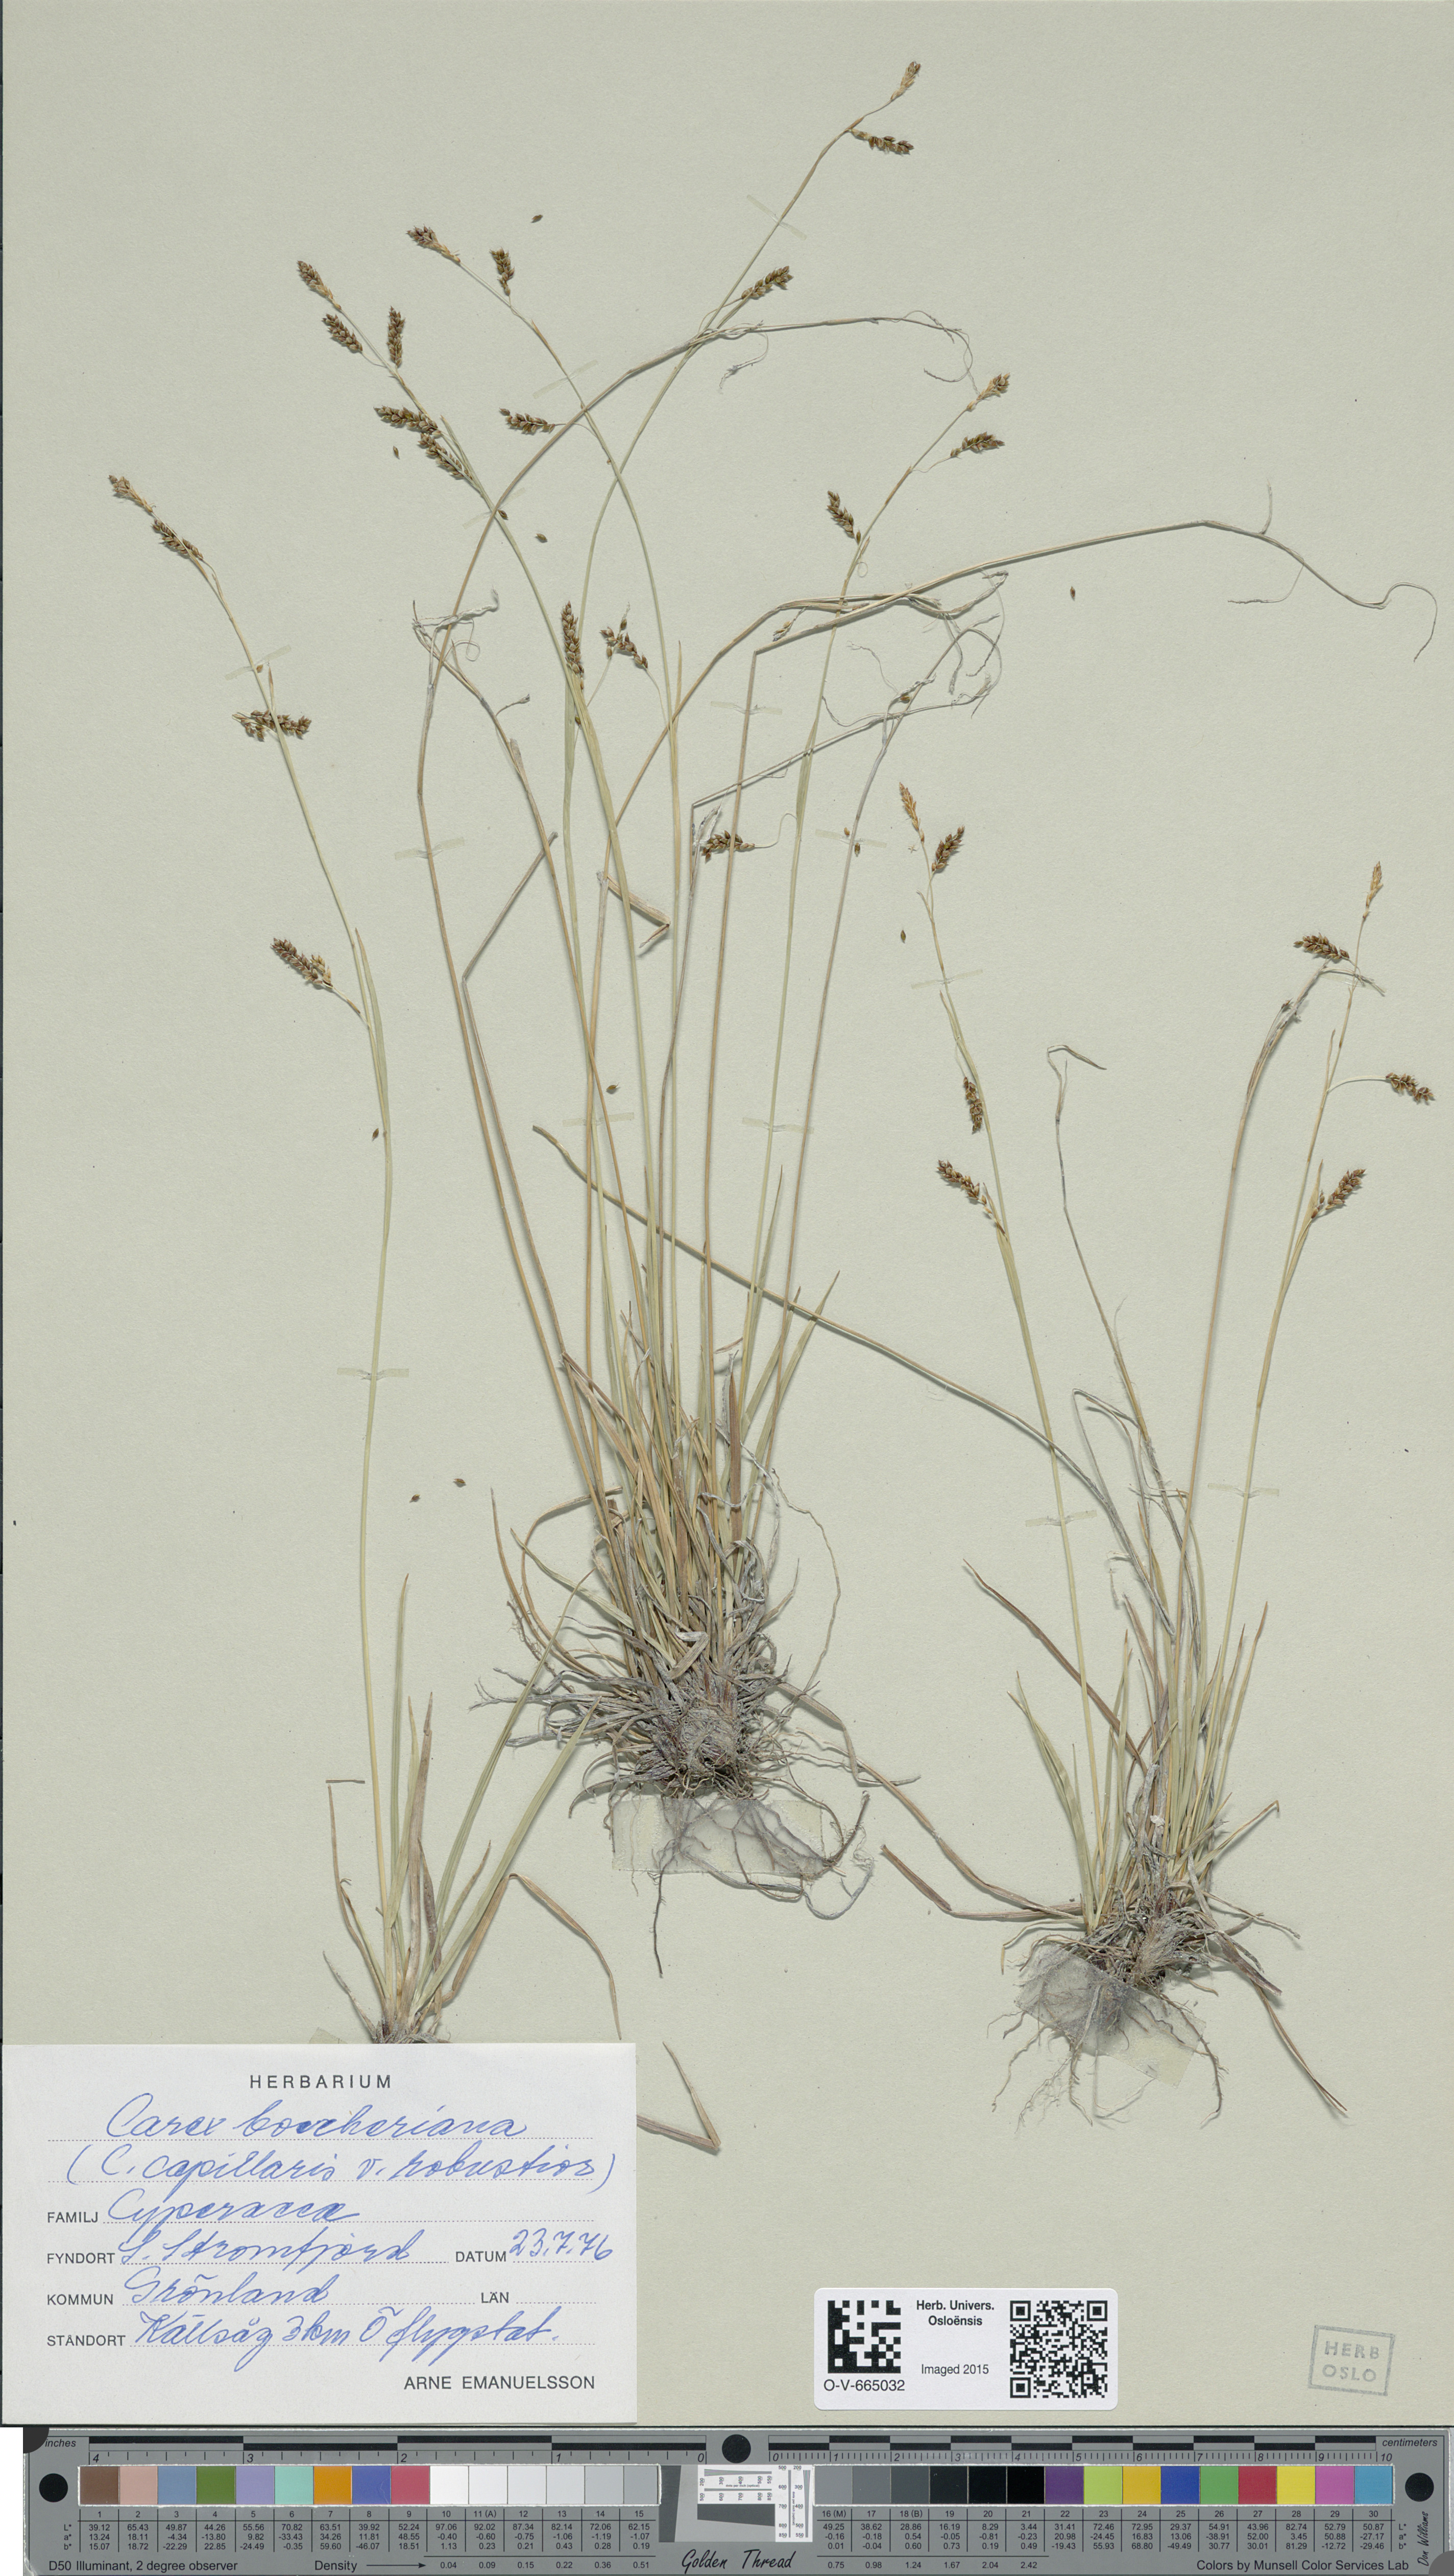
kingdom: Plantae
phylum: Tracheophyta
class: Liliopsida
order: Poales
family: Cyperaceae
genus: Carex
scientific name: Carex krausei
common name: Krause's sedge
